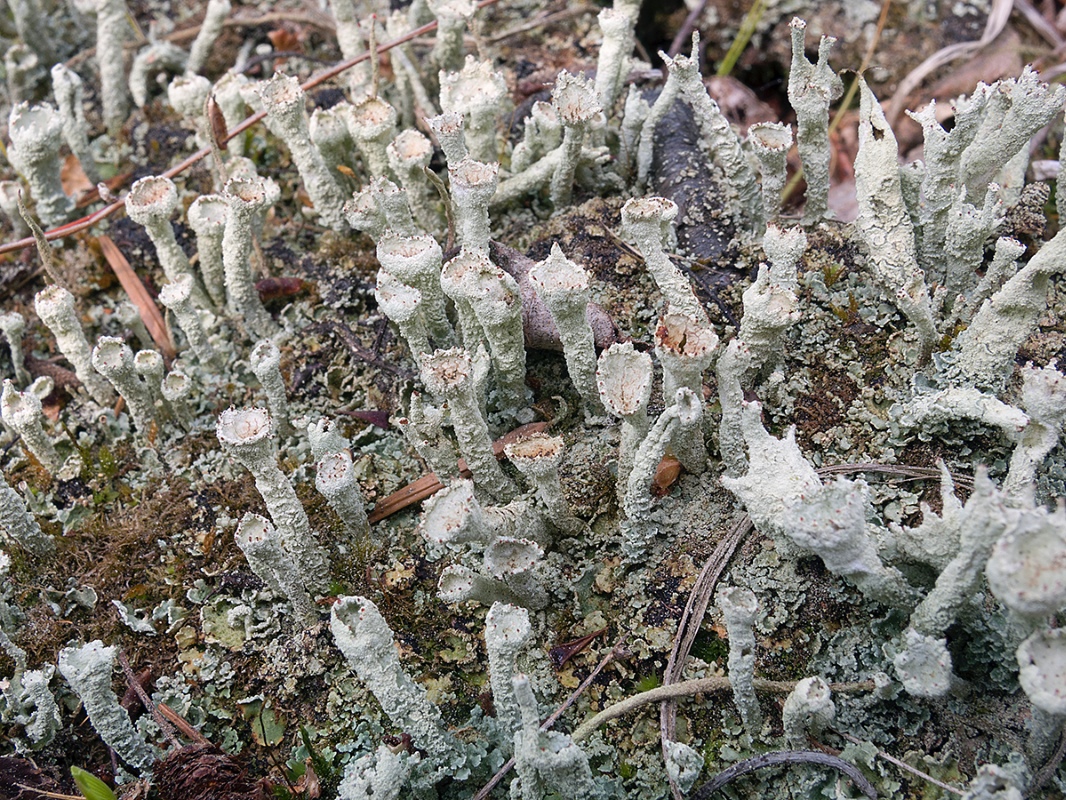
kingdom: Fungi
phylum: Ascomycota
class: Lecanoromycetes
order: Lecanorales
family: Cladoniaceae
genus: Cladonia
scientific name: Cladonia digitata
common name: finger-bægerlav
